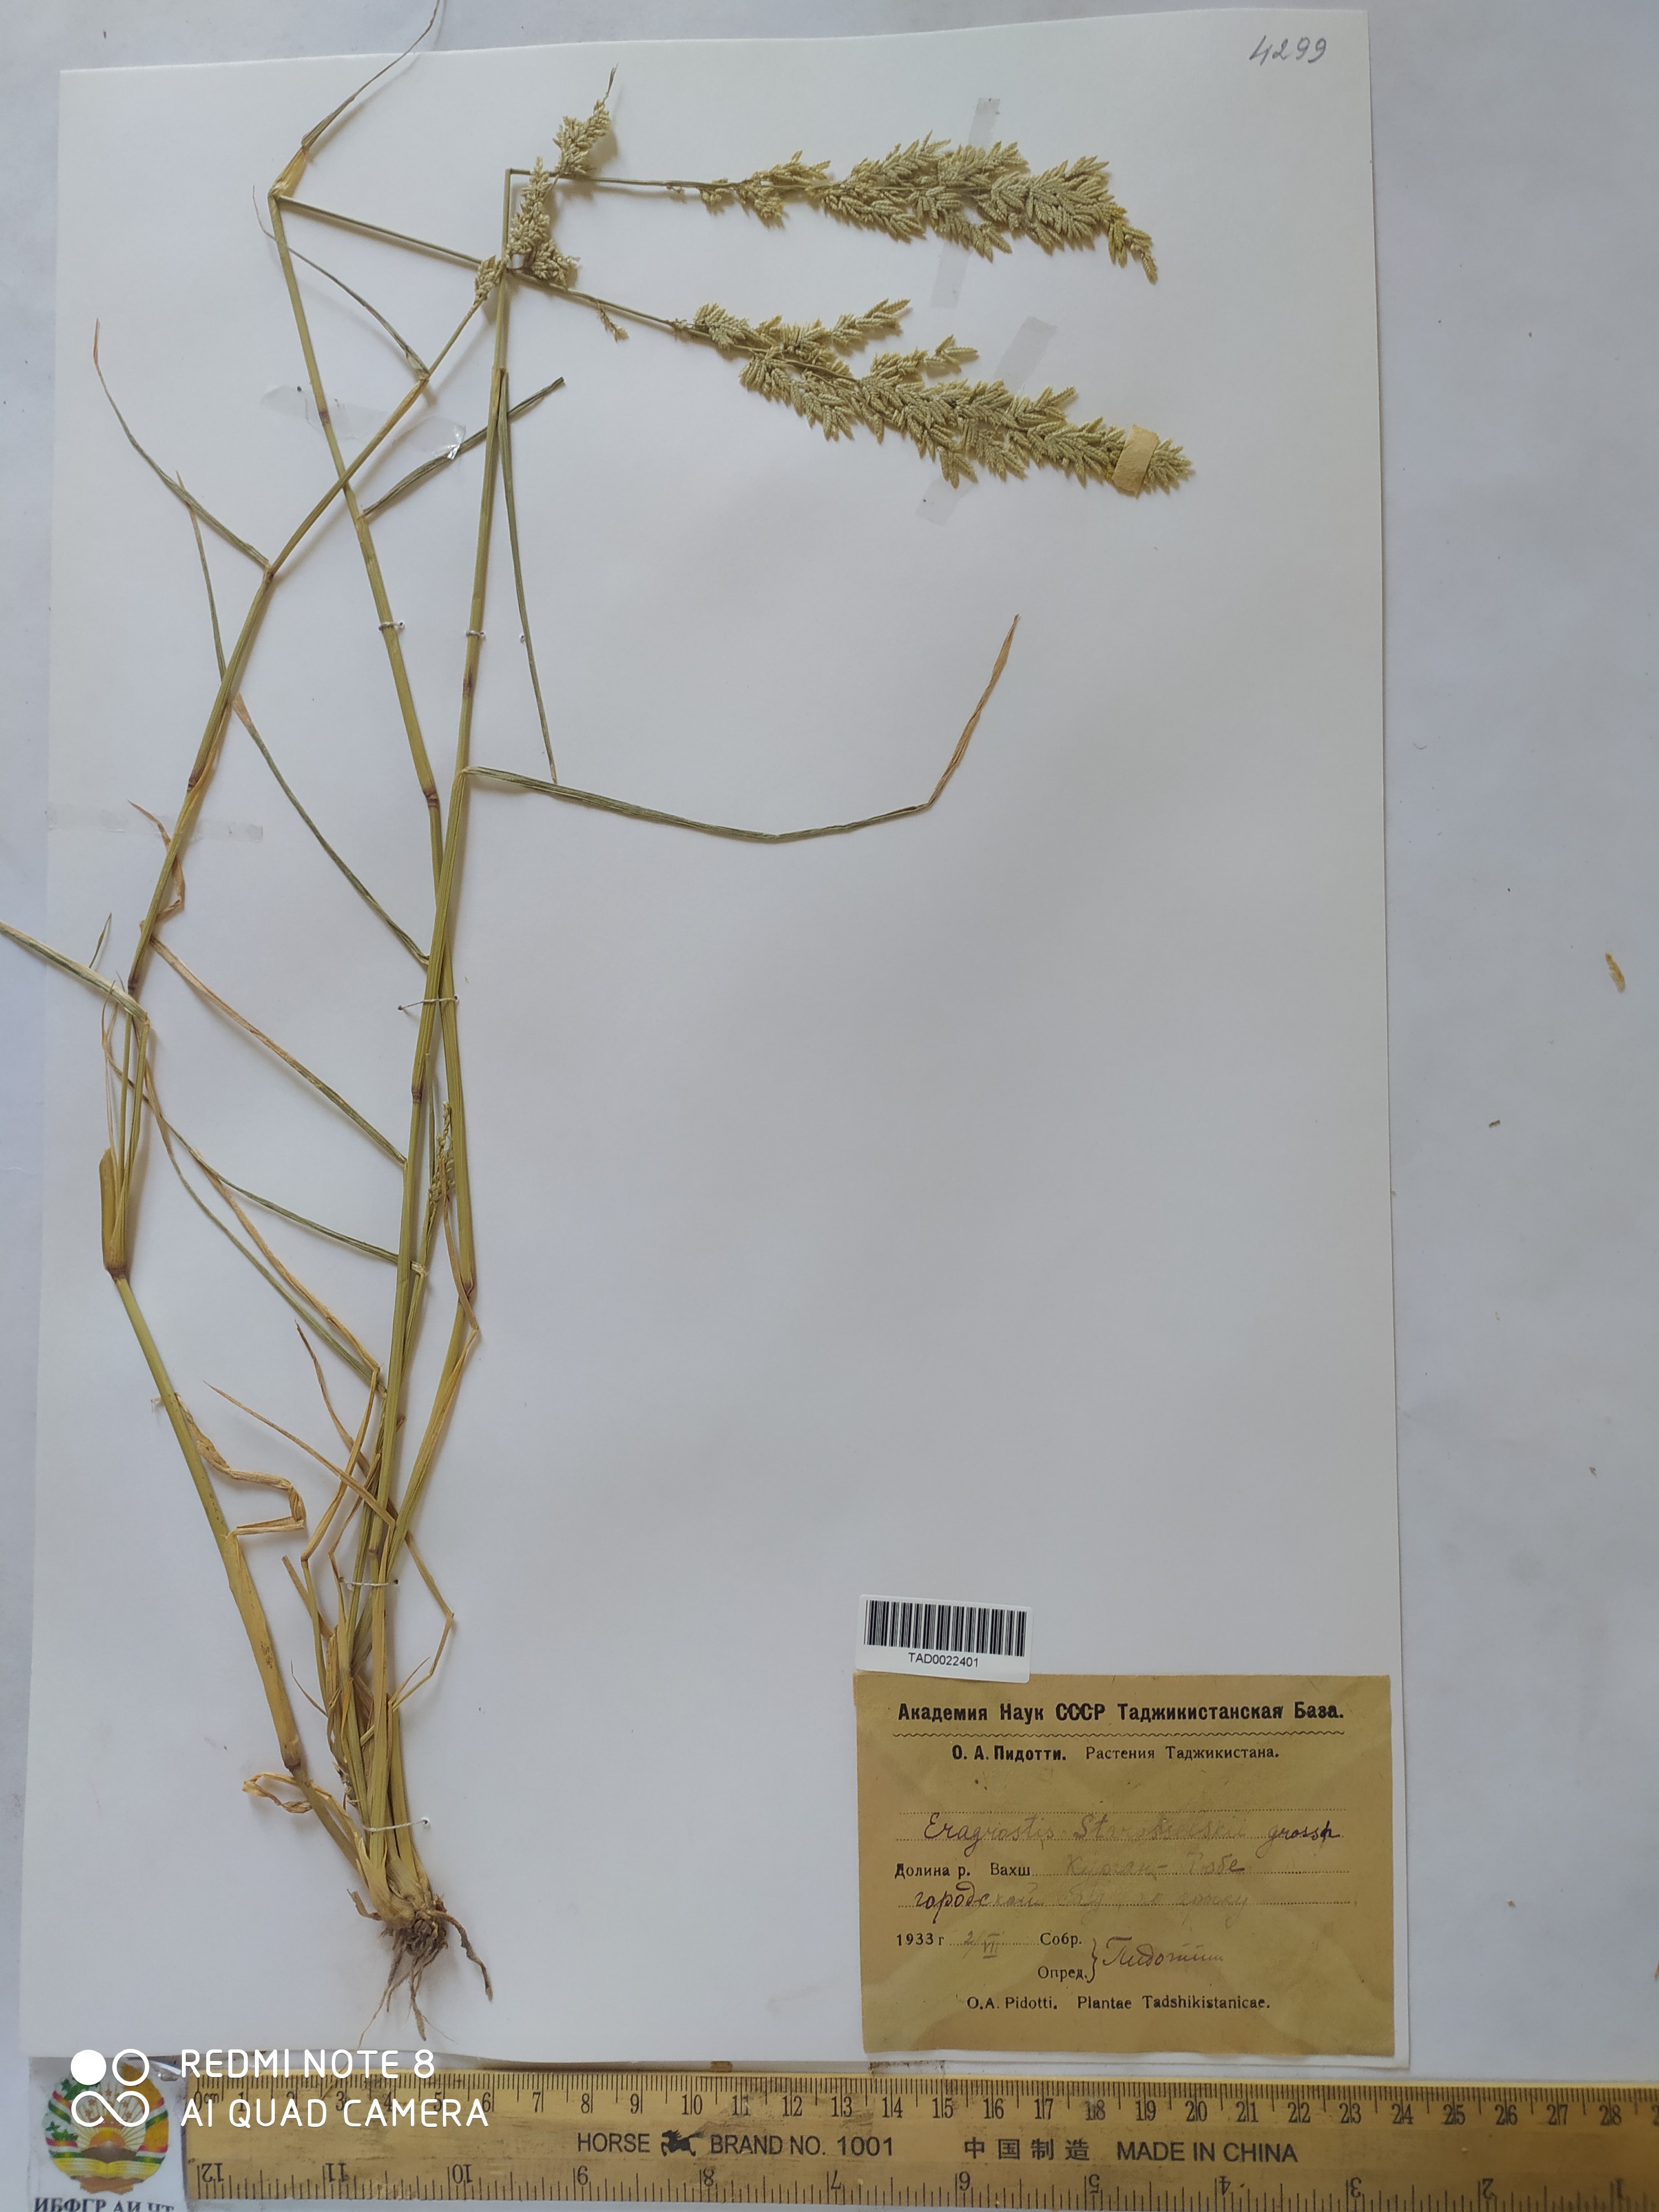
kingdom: Plantae
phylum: Tracheophyta
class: Liliopsida
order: Poales
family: Poaceae
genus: Eragrostis
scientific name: Eragrostis cilianensis
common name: Stinkgrass
